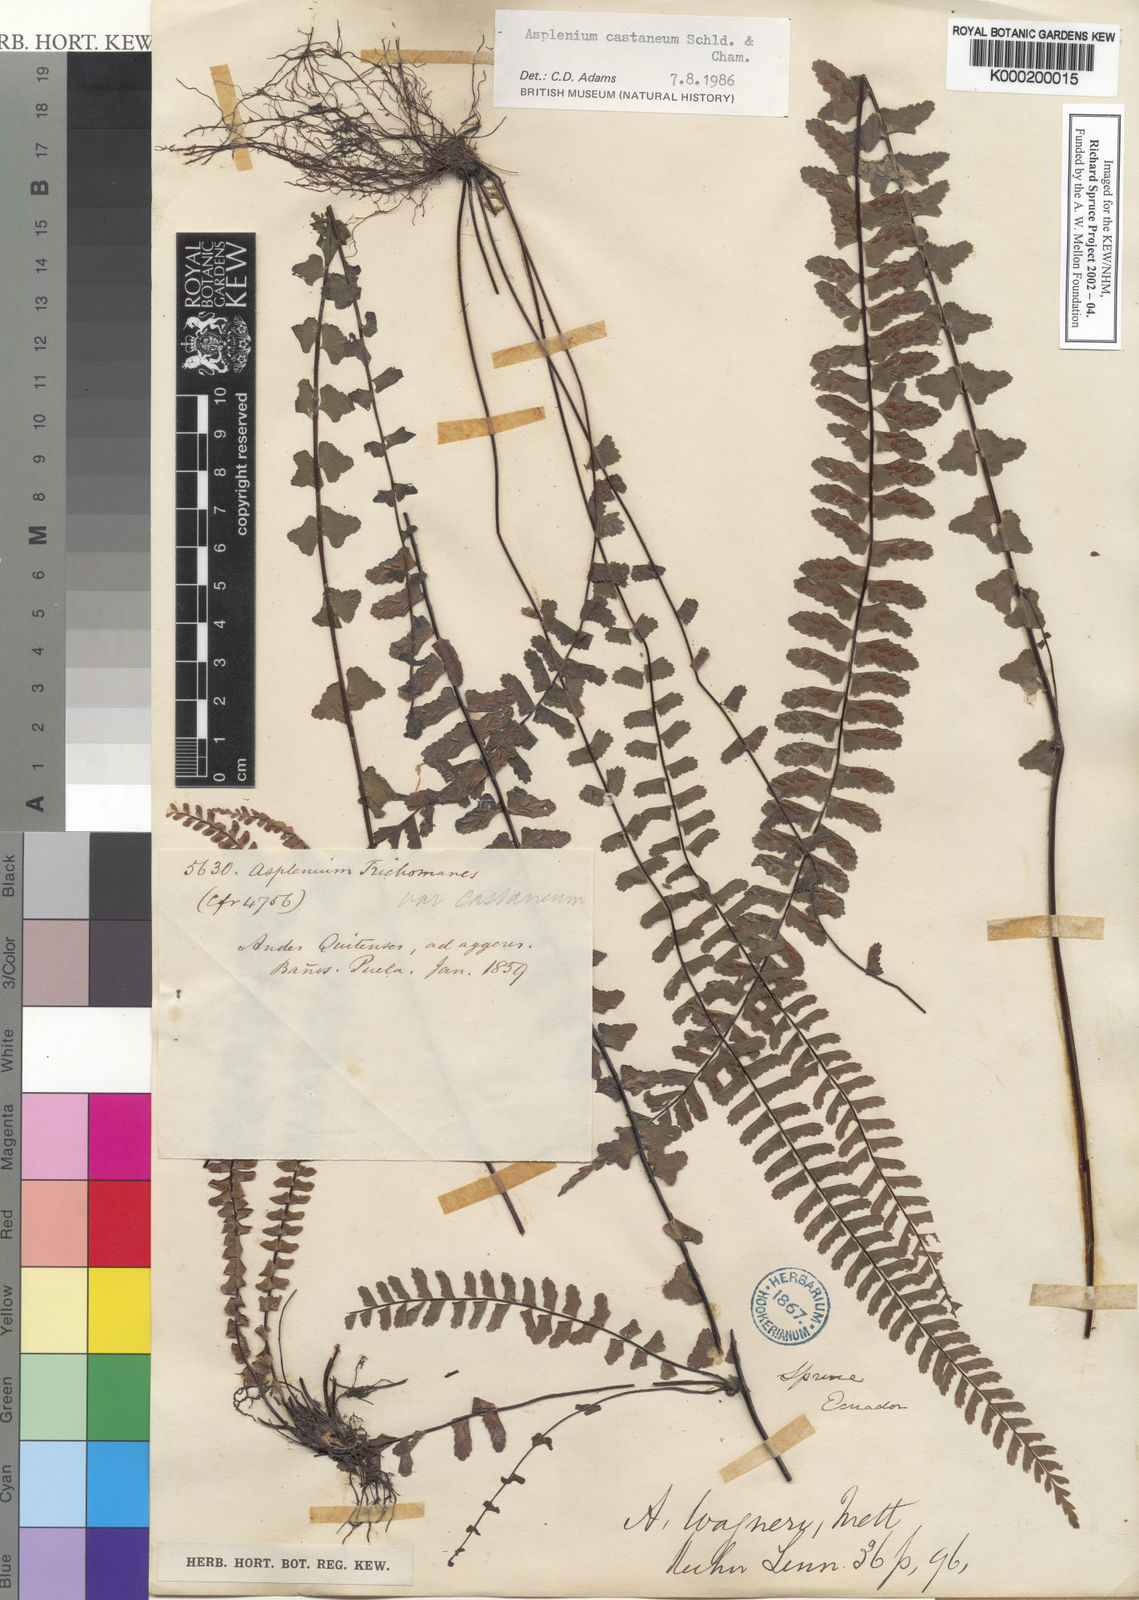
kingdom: Plantae
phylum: Tracheophyta
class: Polypodiopsida
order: Polypodiales
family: Aspleniaceae
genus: Asplenium
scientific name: Asplenium castaneum
